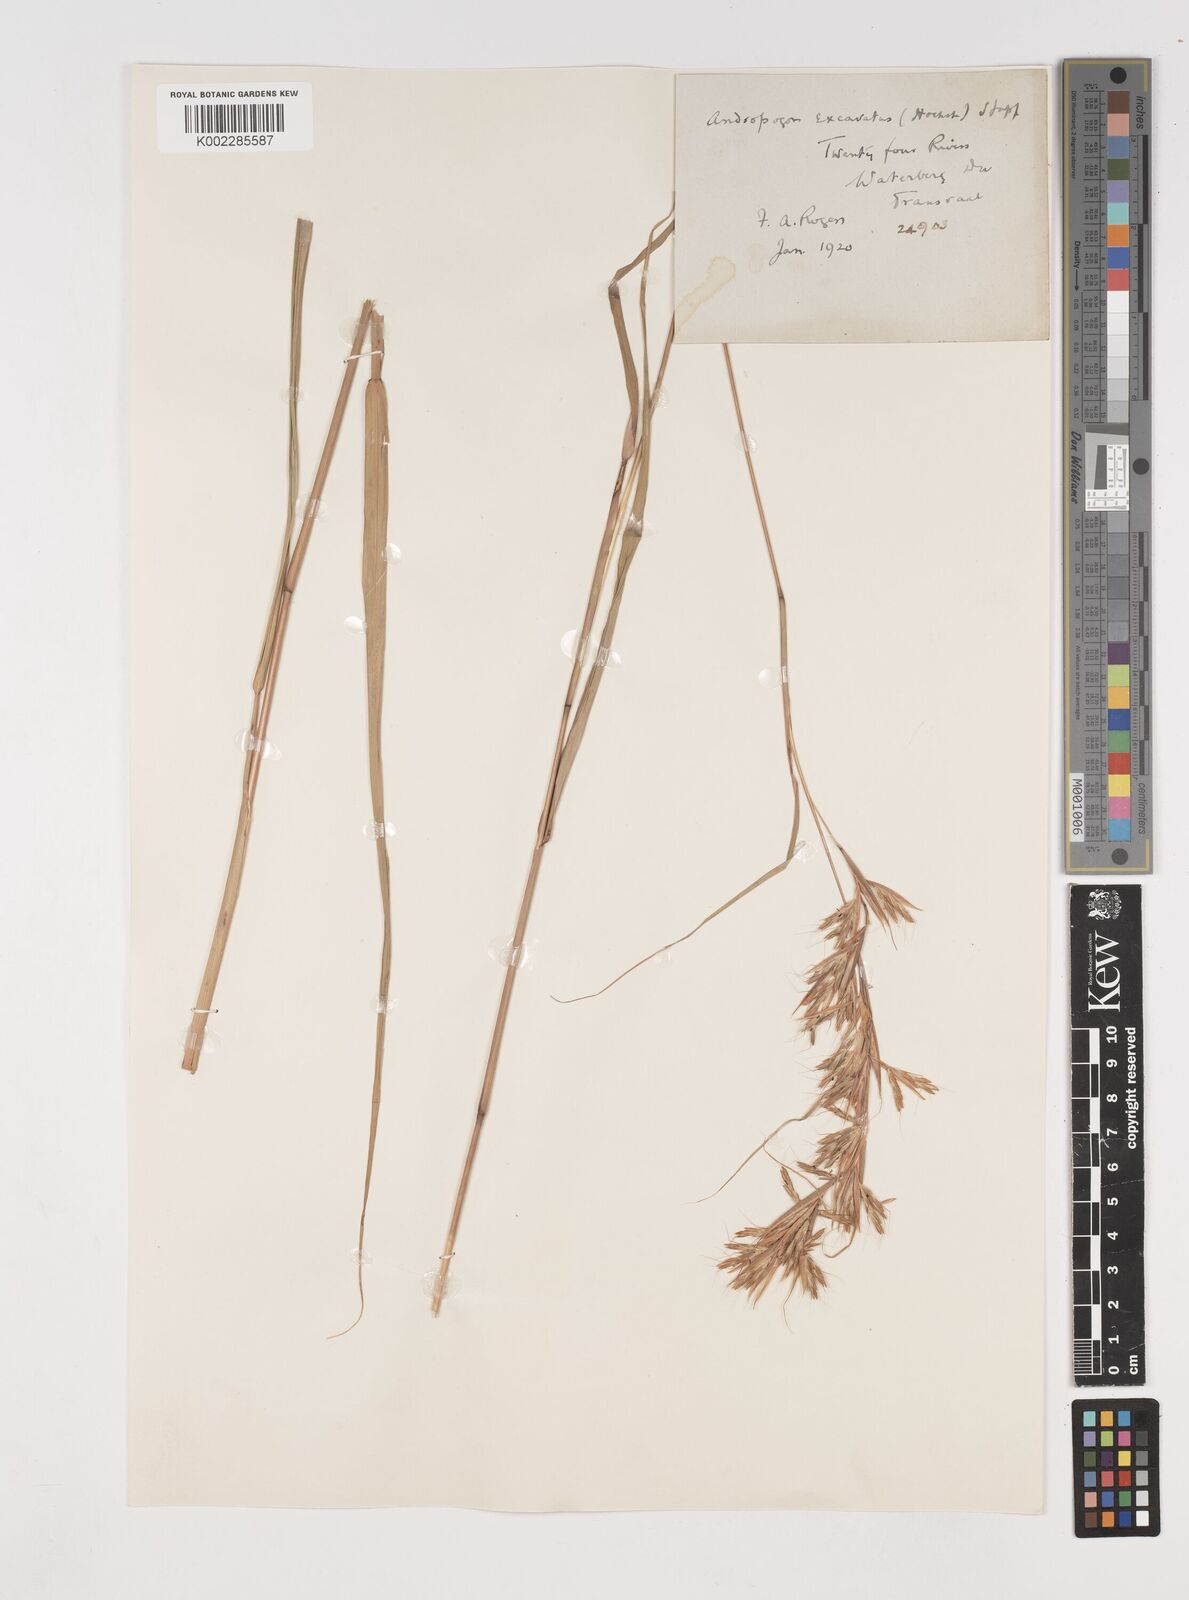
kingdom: Plantae
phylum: Tracheophyta
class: Liliopsida
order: Poales
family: Poaceae
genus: Cymbopogon
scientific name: Cymbopogon caesius
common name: Kachi grass
